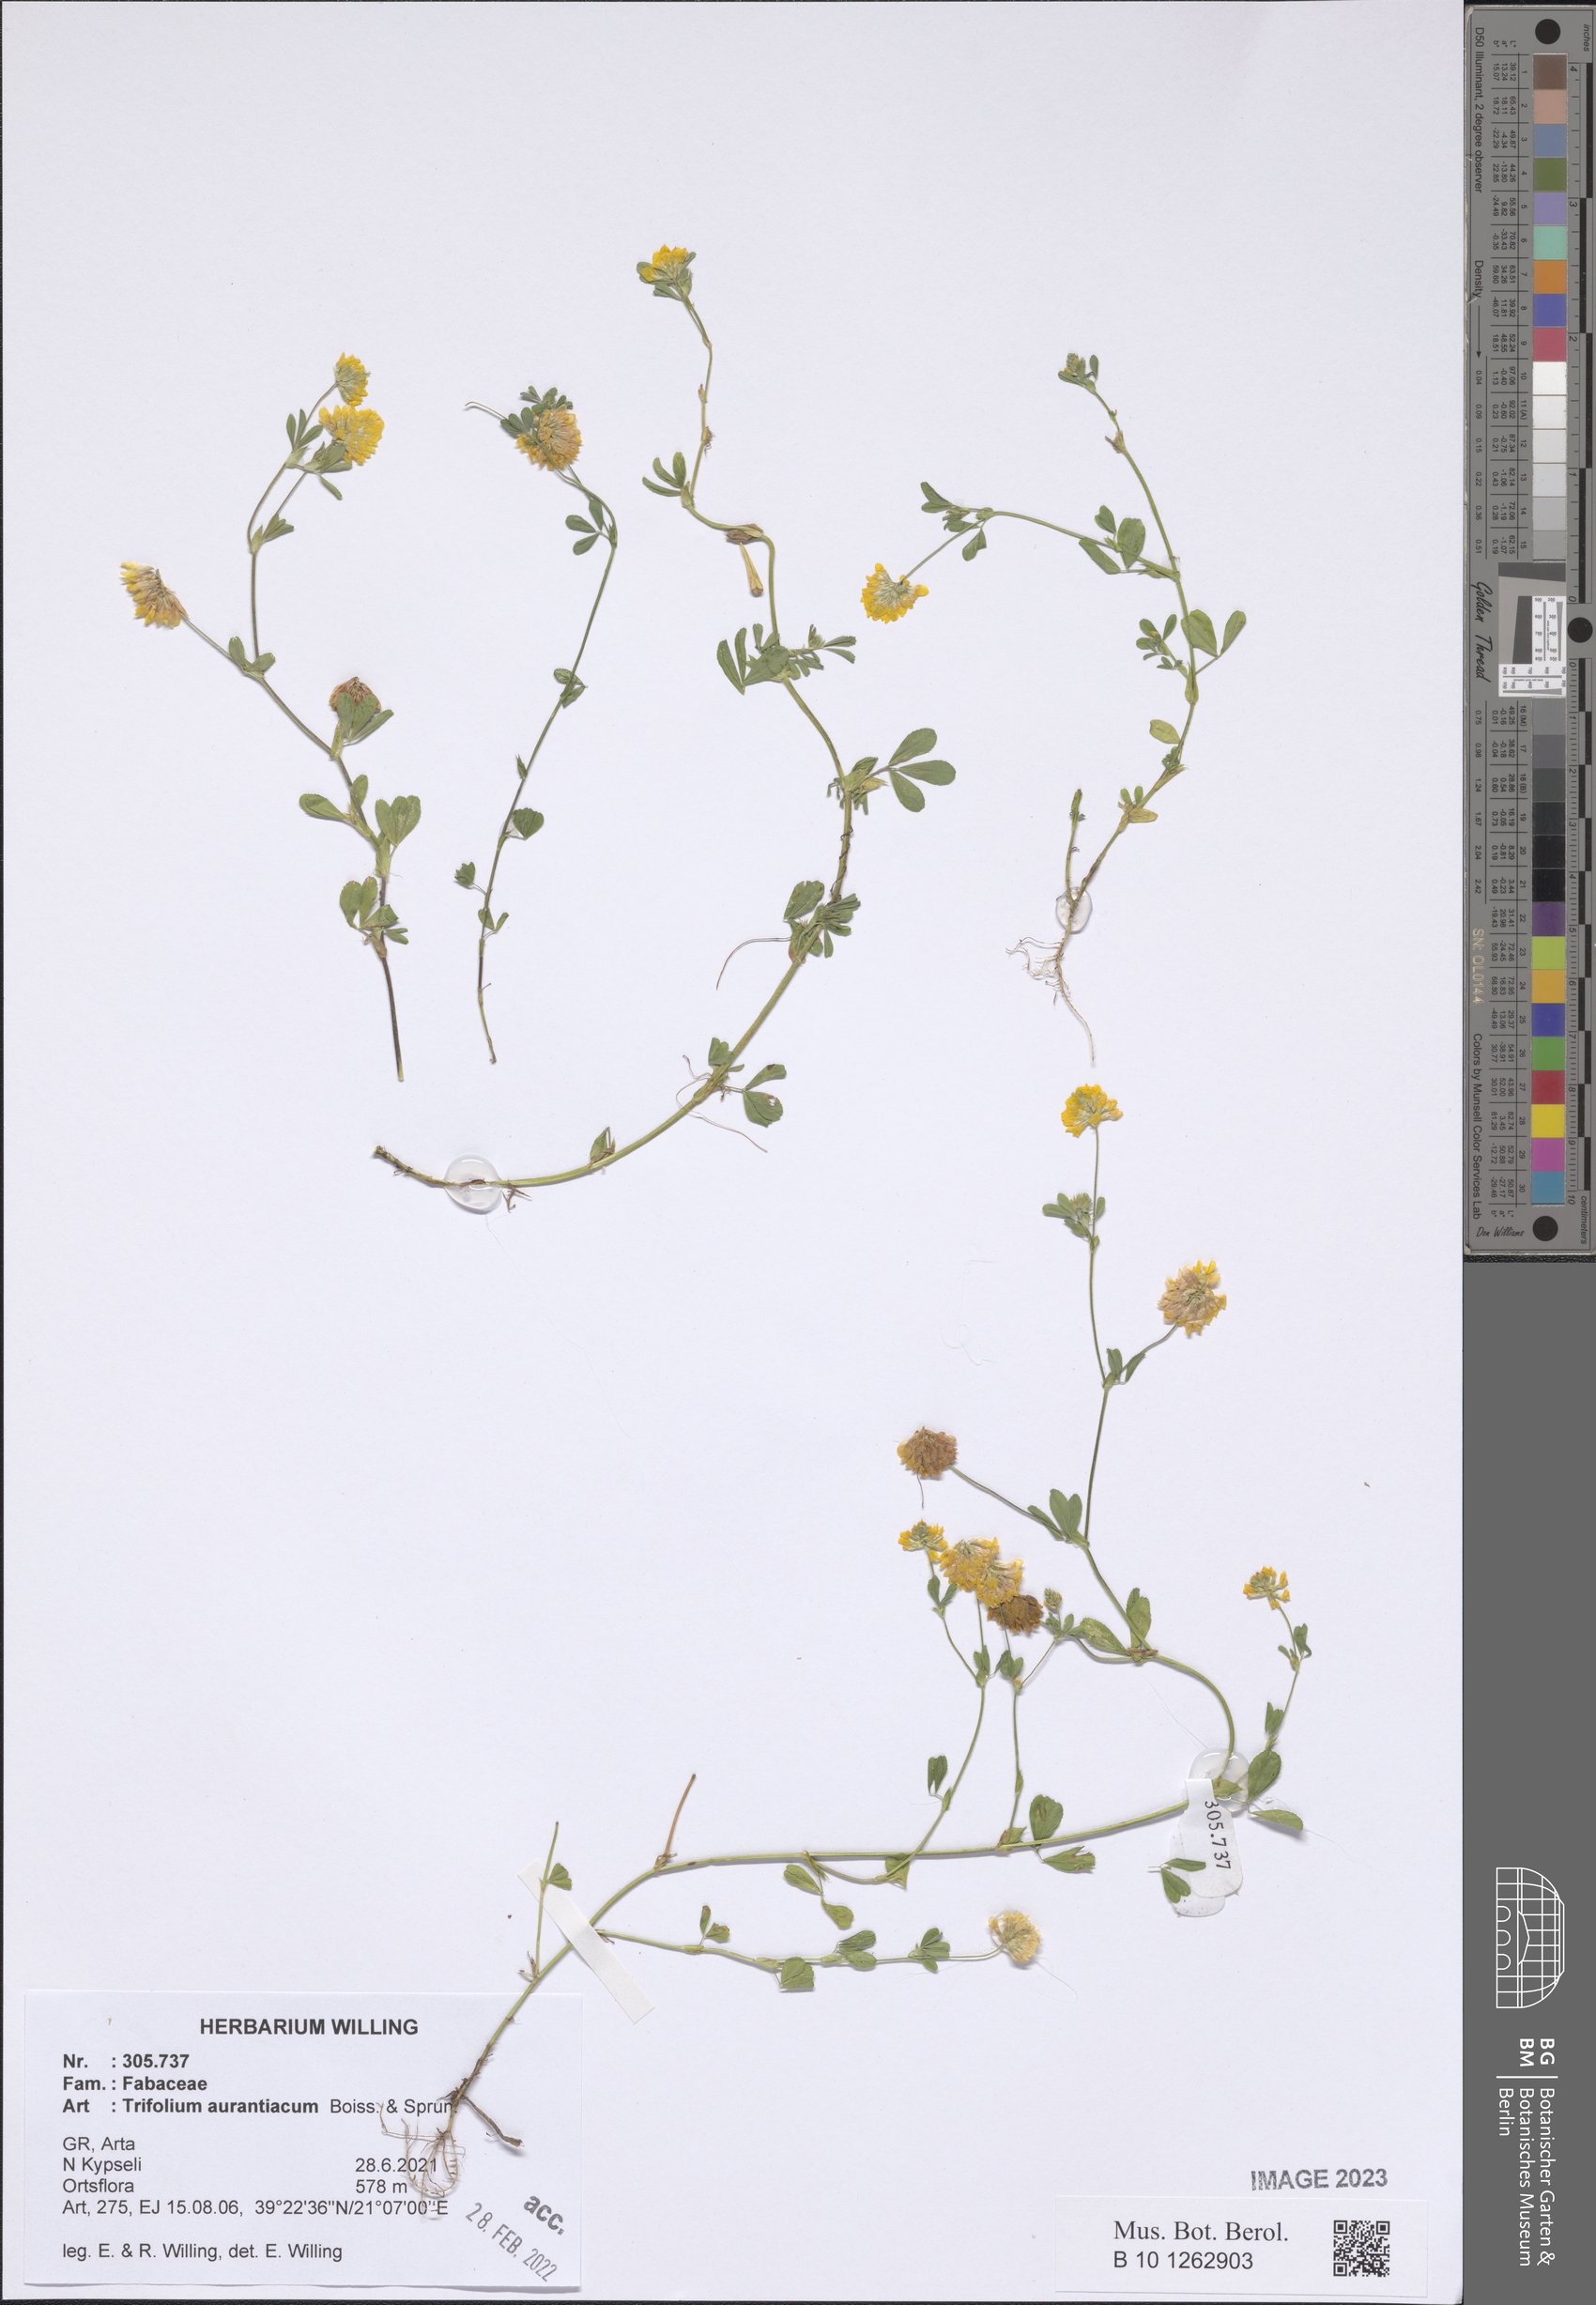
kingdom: Plantae
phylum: Tracheophyta
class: Magnoliopsida
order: Fabales
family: Fabaceae
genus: Trifolium
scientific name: Trifolium aurantiacum
